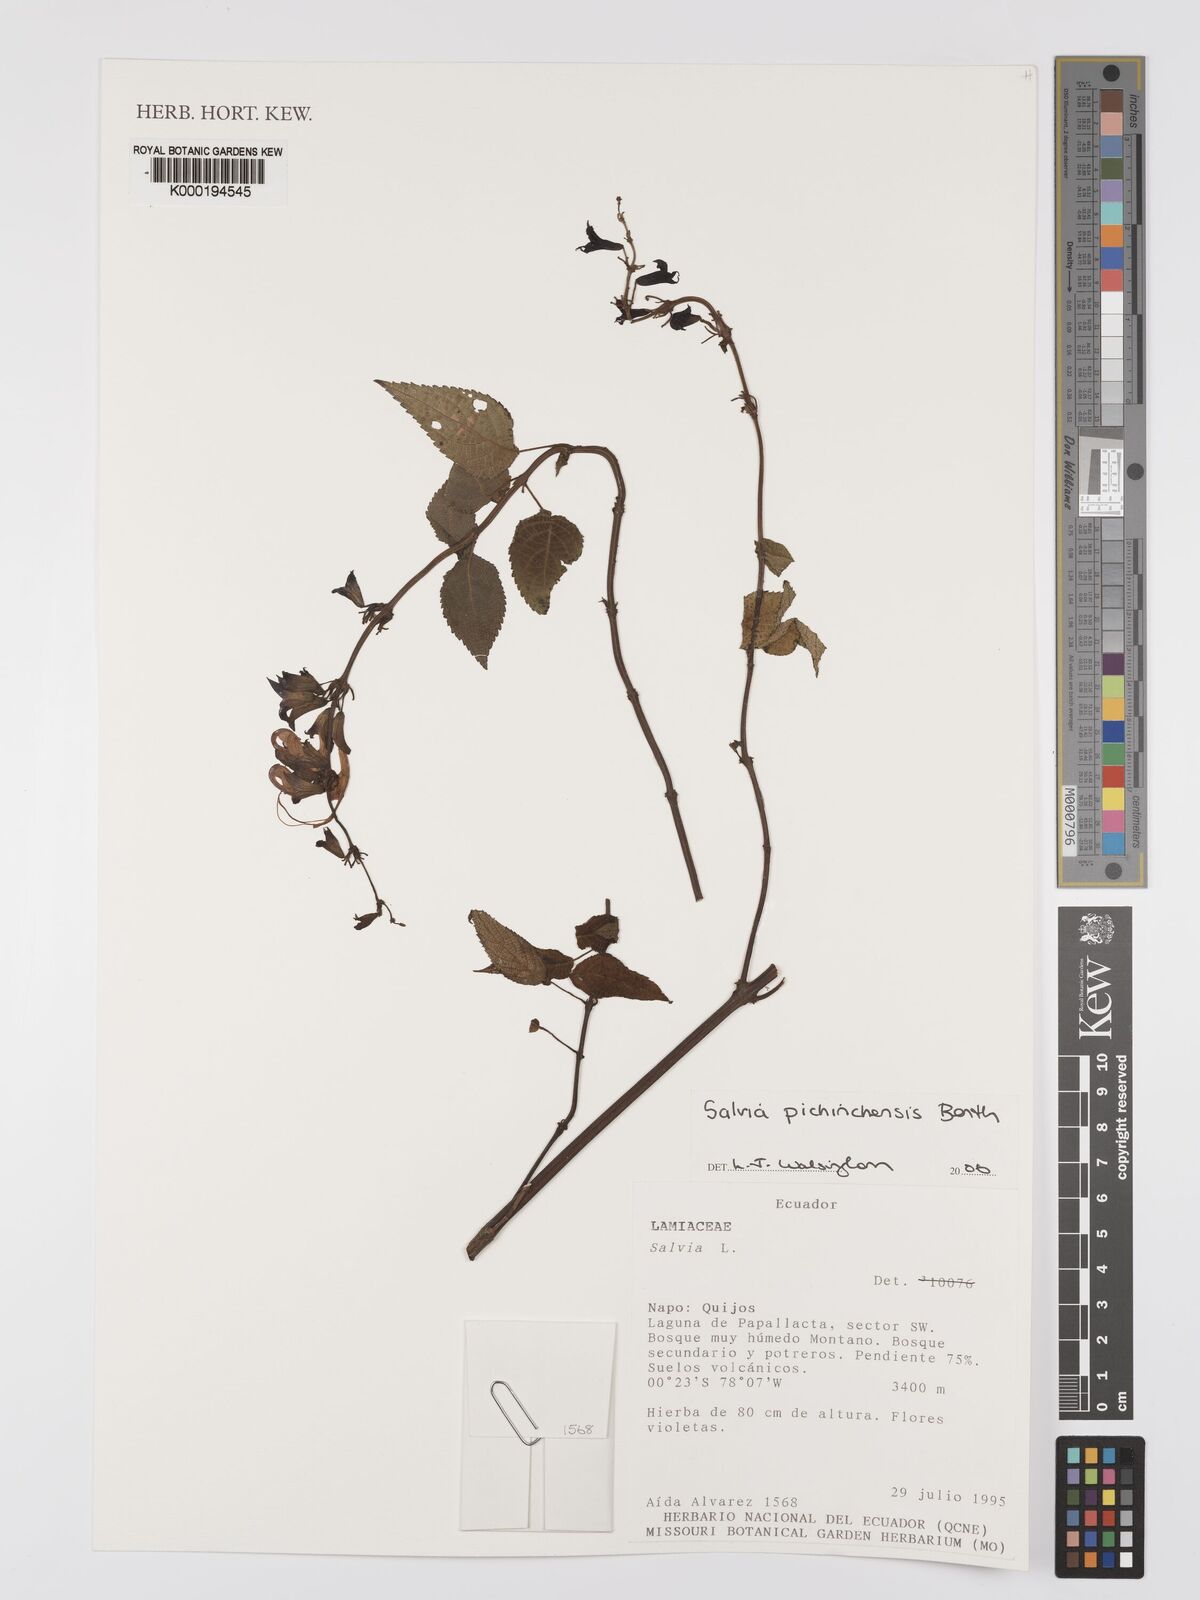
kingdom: Plantae
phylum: Tracheophyta
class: Magnoliopsida
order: Lamiales
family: Lamiaceae
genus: Salvia
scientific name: Salvia pichinchensis
